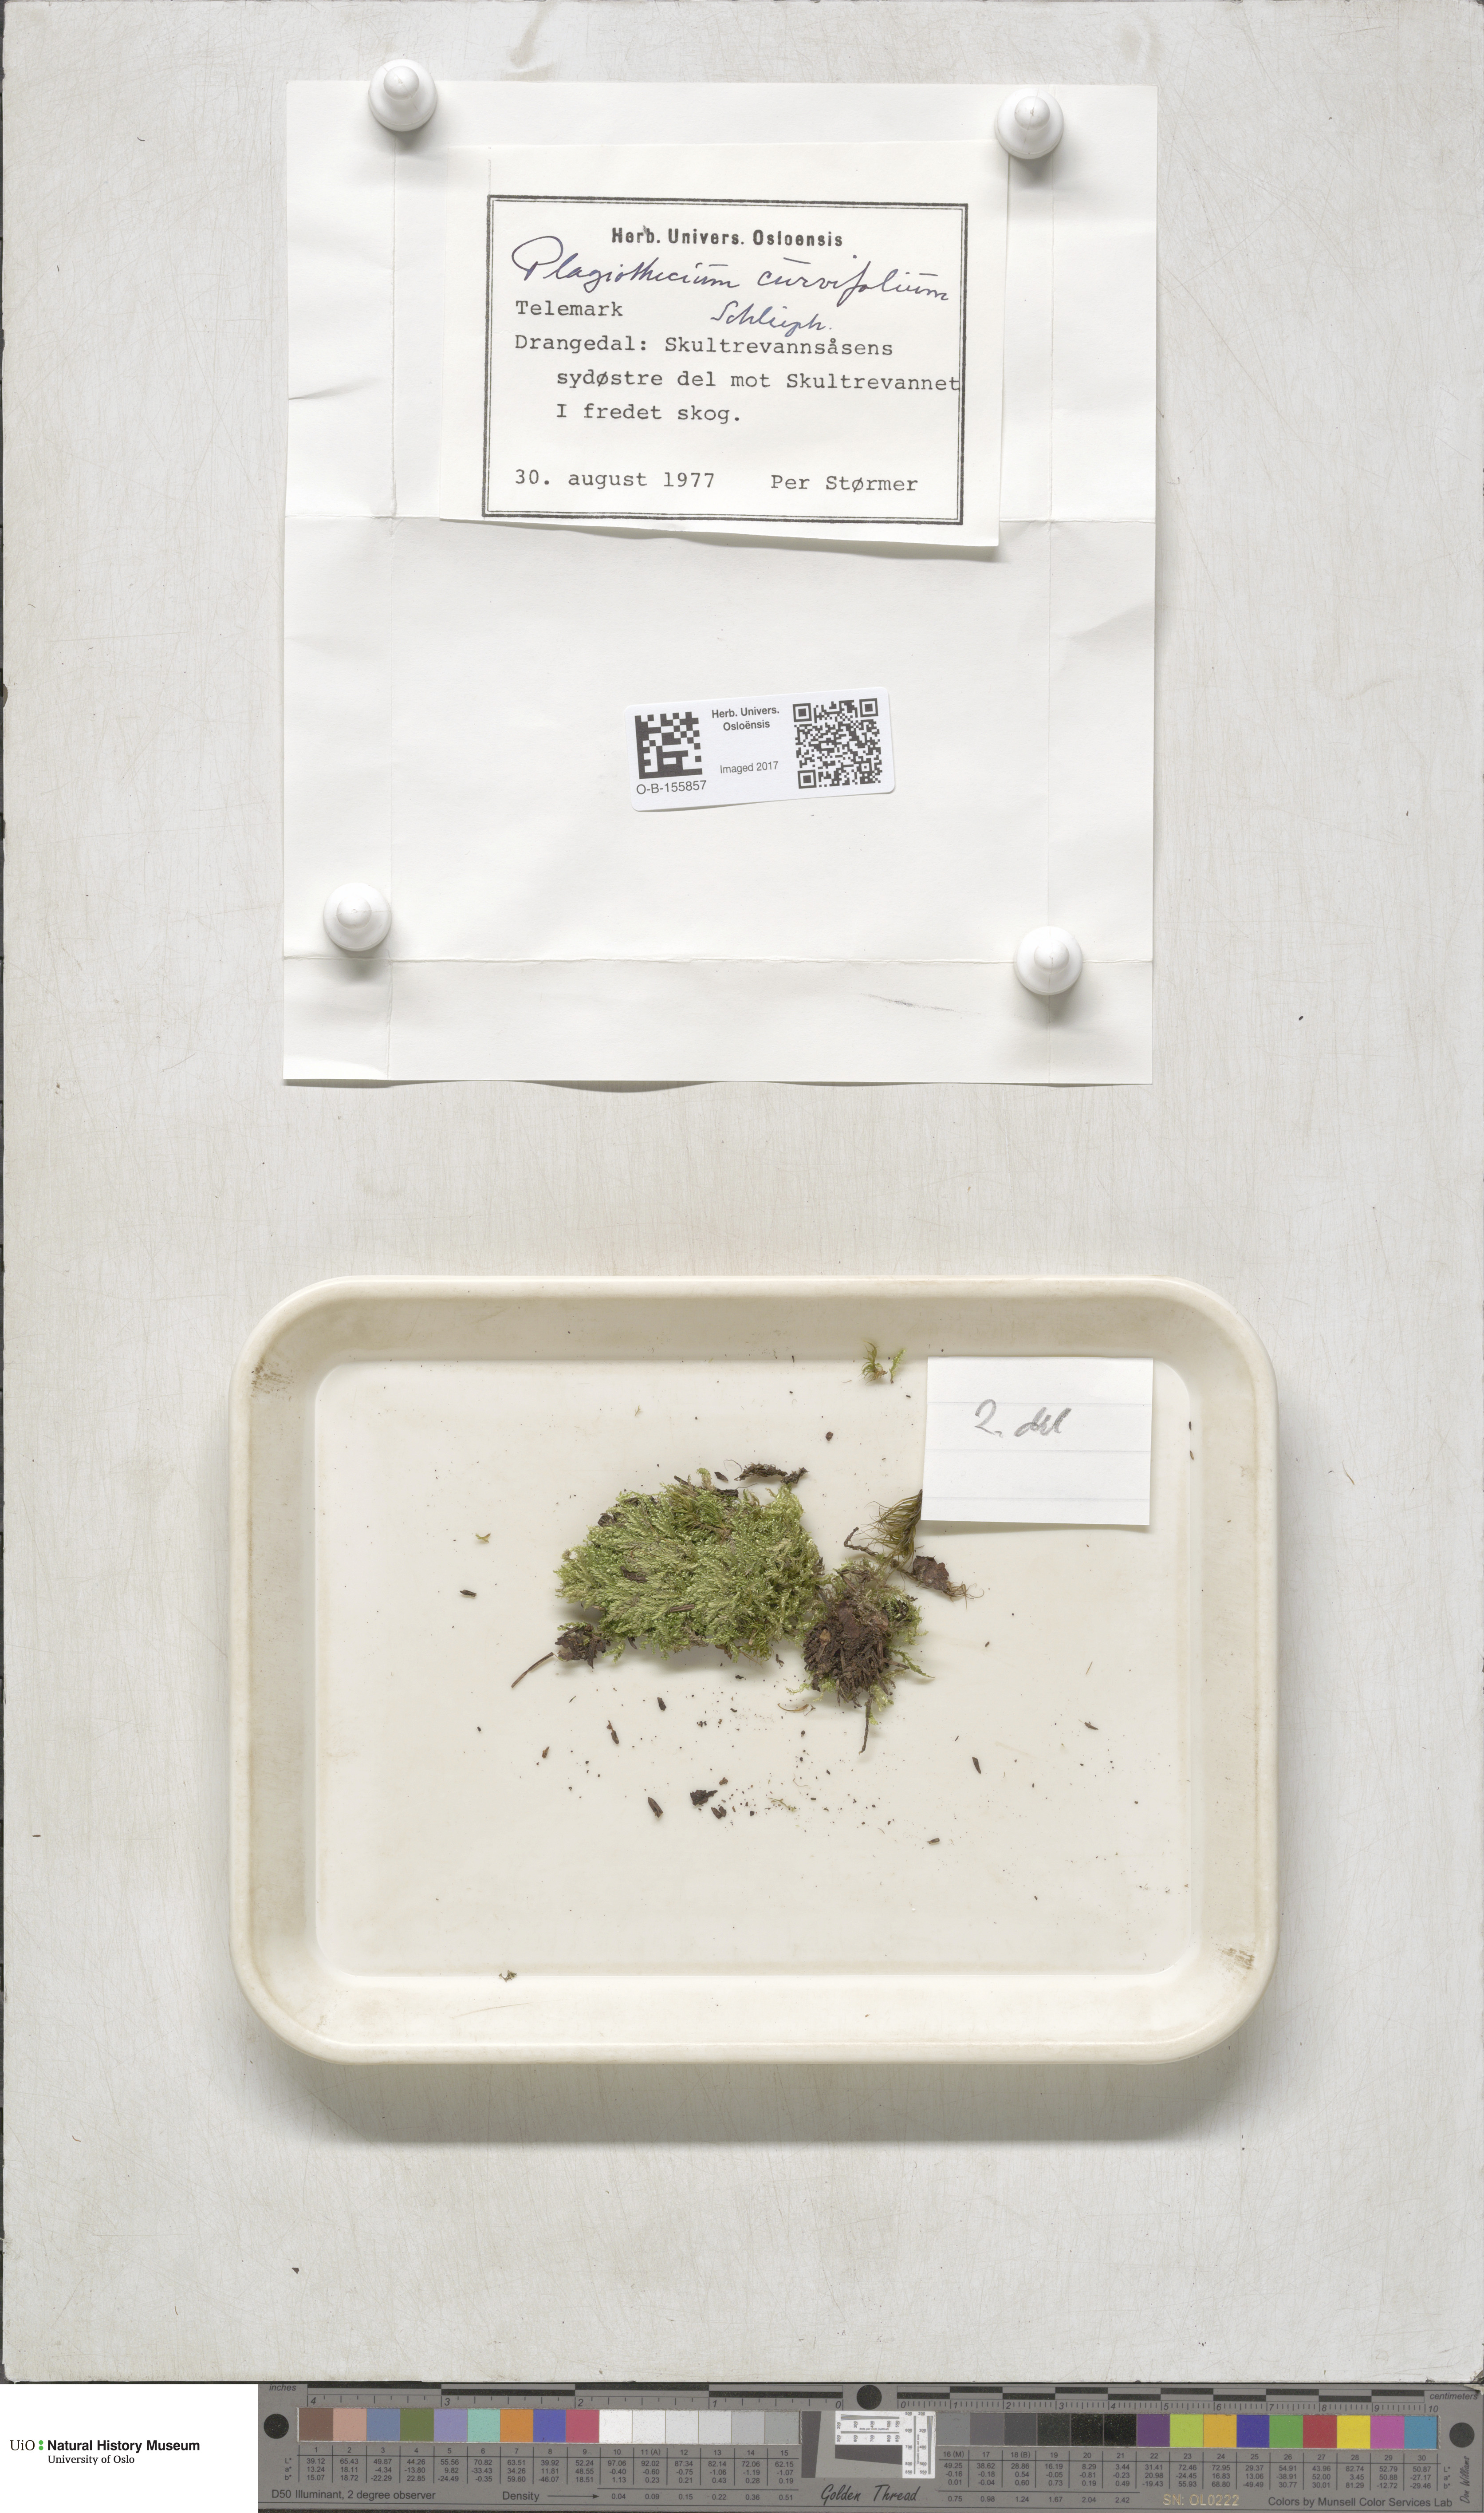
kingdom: Plantae
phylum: Bryophyta
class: Bryopsida
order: Hypnales
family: Plagiotheciaceae
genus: Plagiothecium
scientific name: Plagiothecium curvifolium
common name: Curved silk-moss
